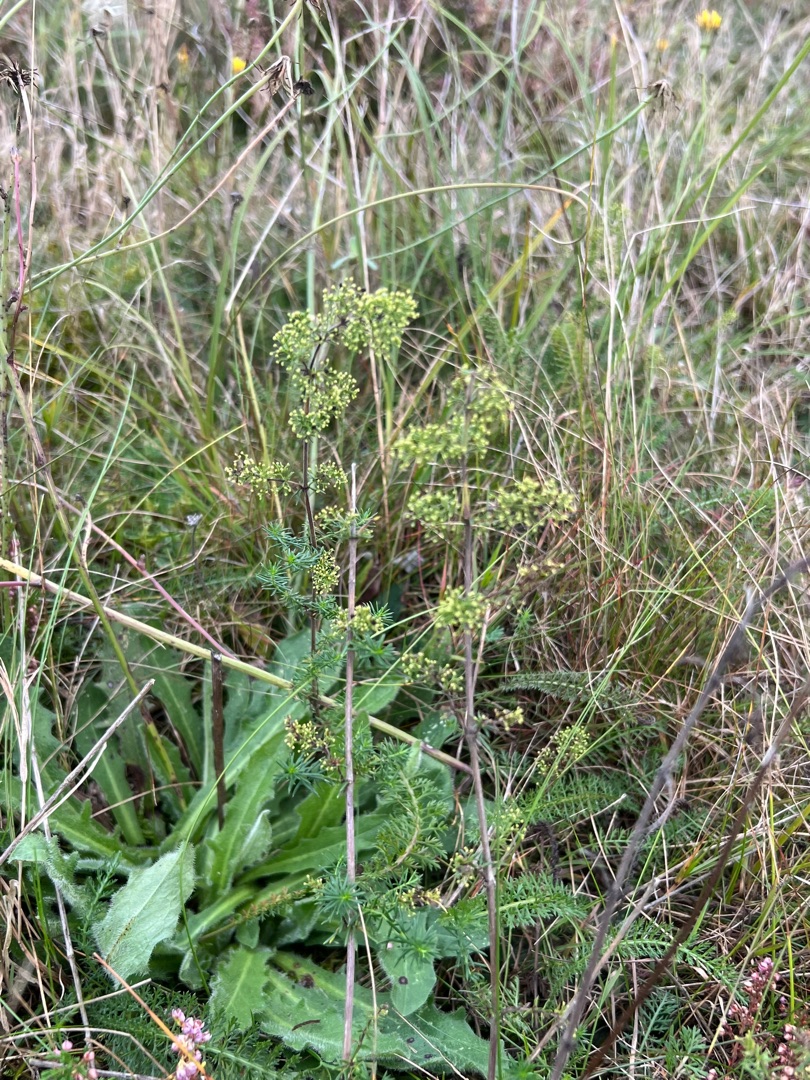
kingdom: Plantae
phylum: Tracheophyta
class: Magnoliopsida
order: Gentianales
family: Rubiaceae
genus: Galium
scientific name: Galium verum
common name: Gul snerre
